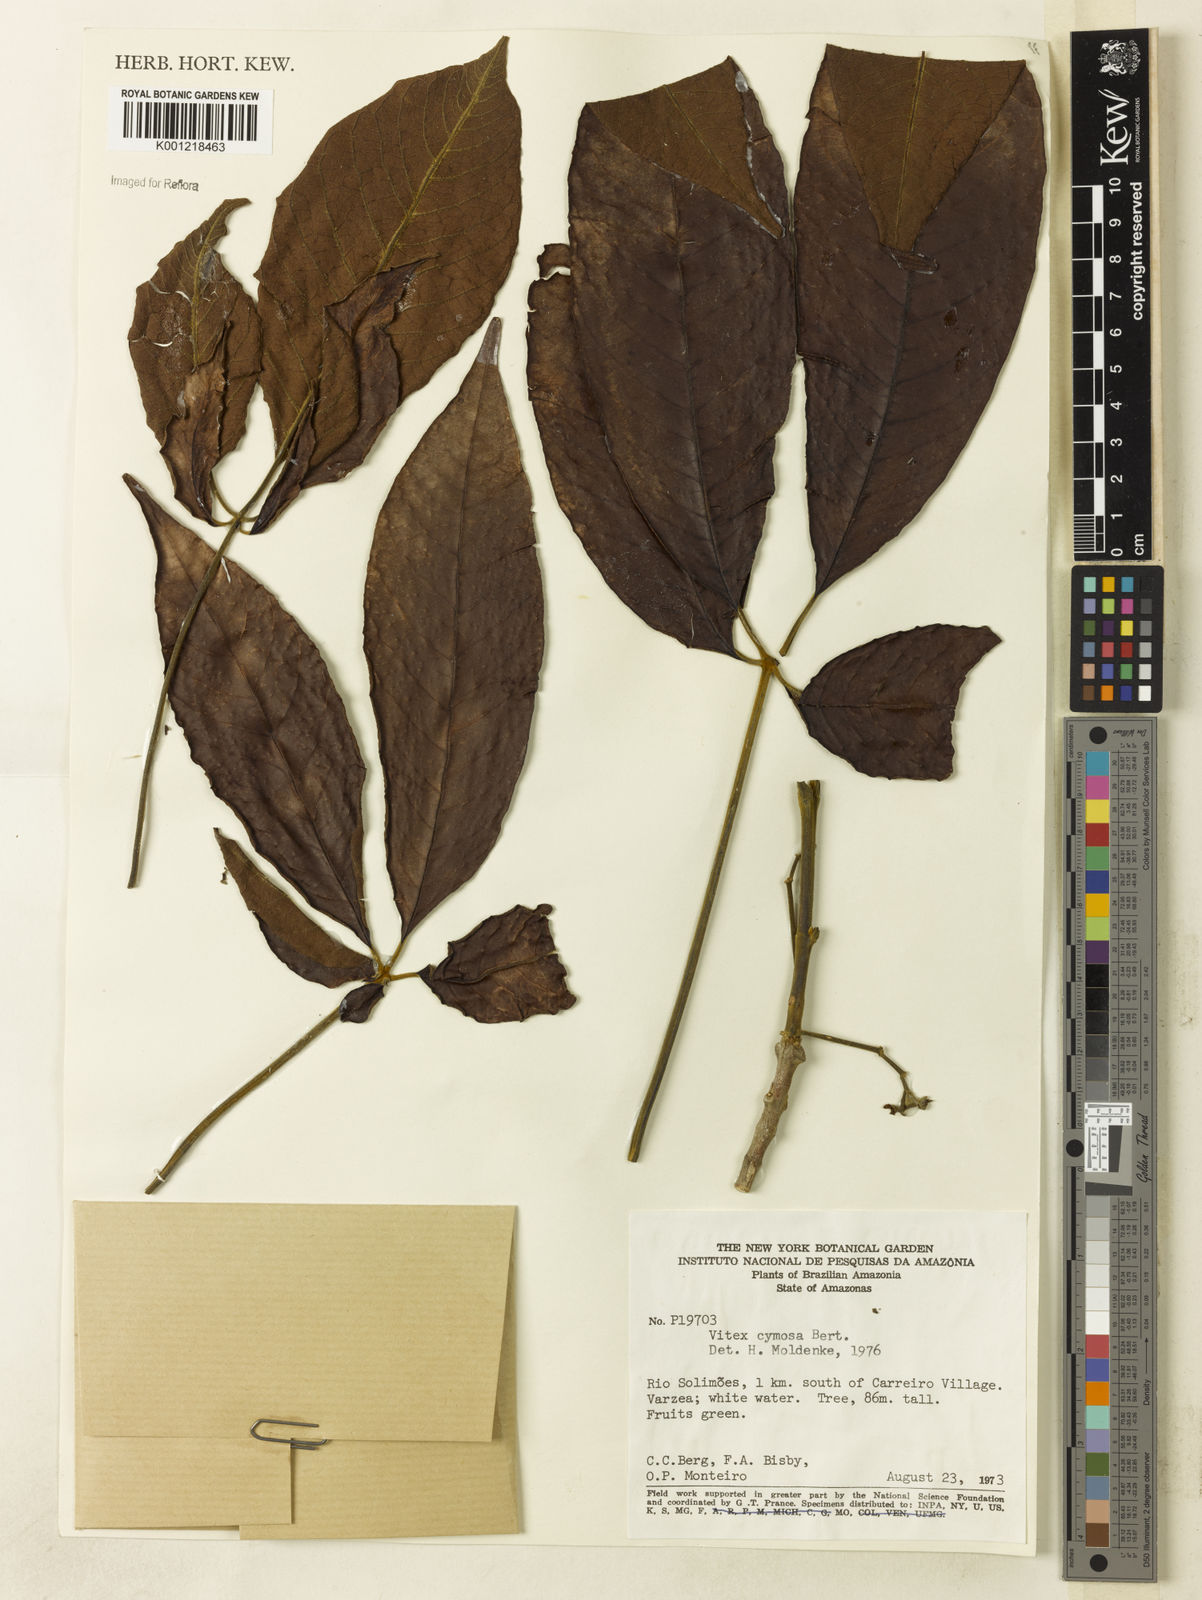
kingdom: Plantae
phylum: Tracheophyta
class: Magnoliopsida
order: Lamiales
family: Lamiaceae
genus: Vitex
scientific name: Vitex cymosa
